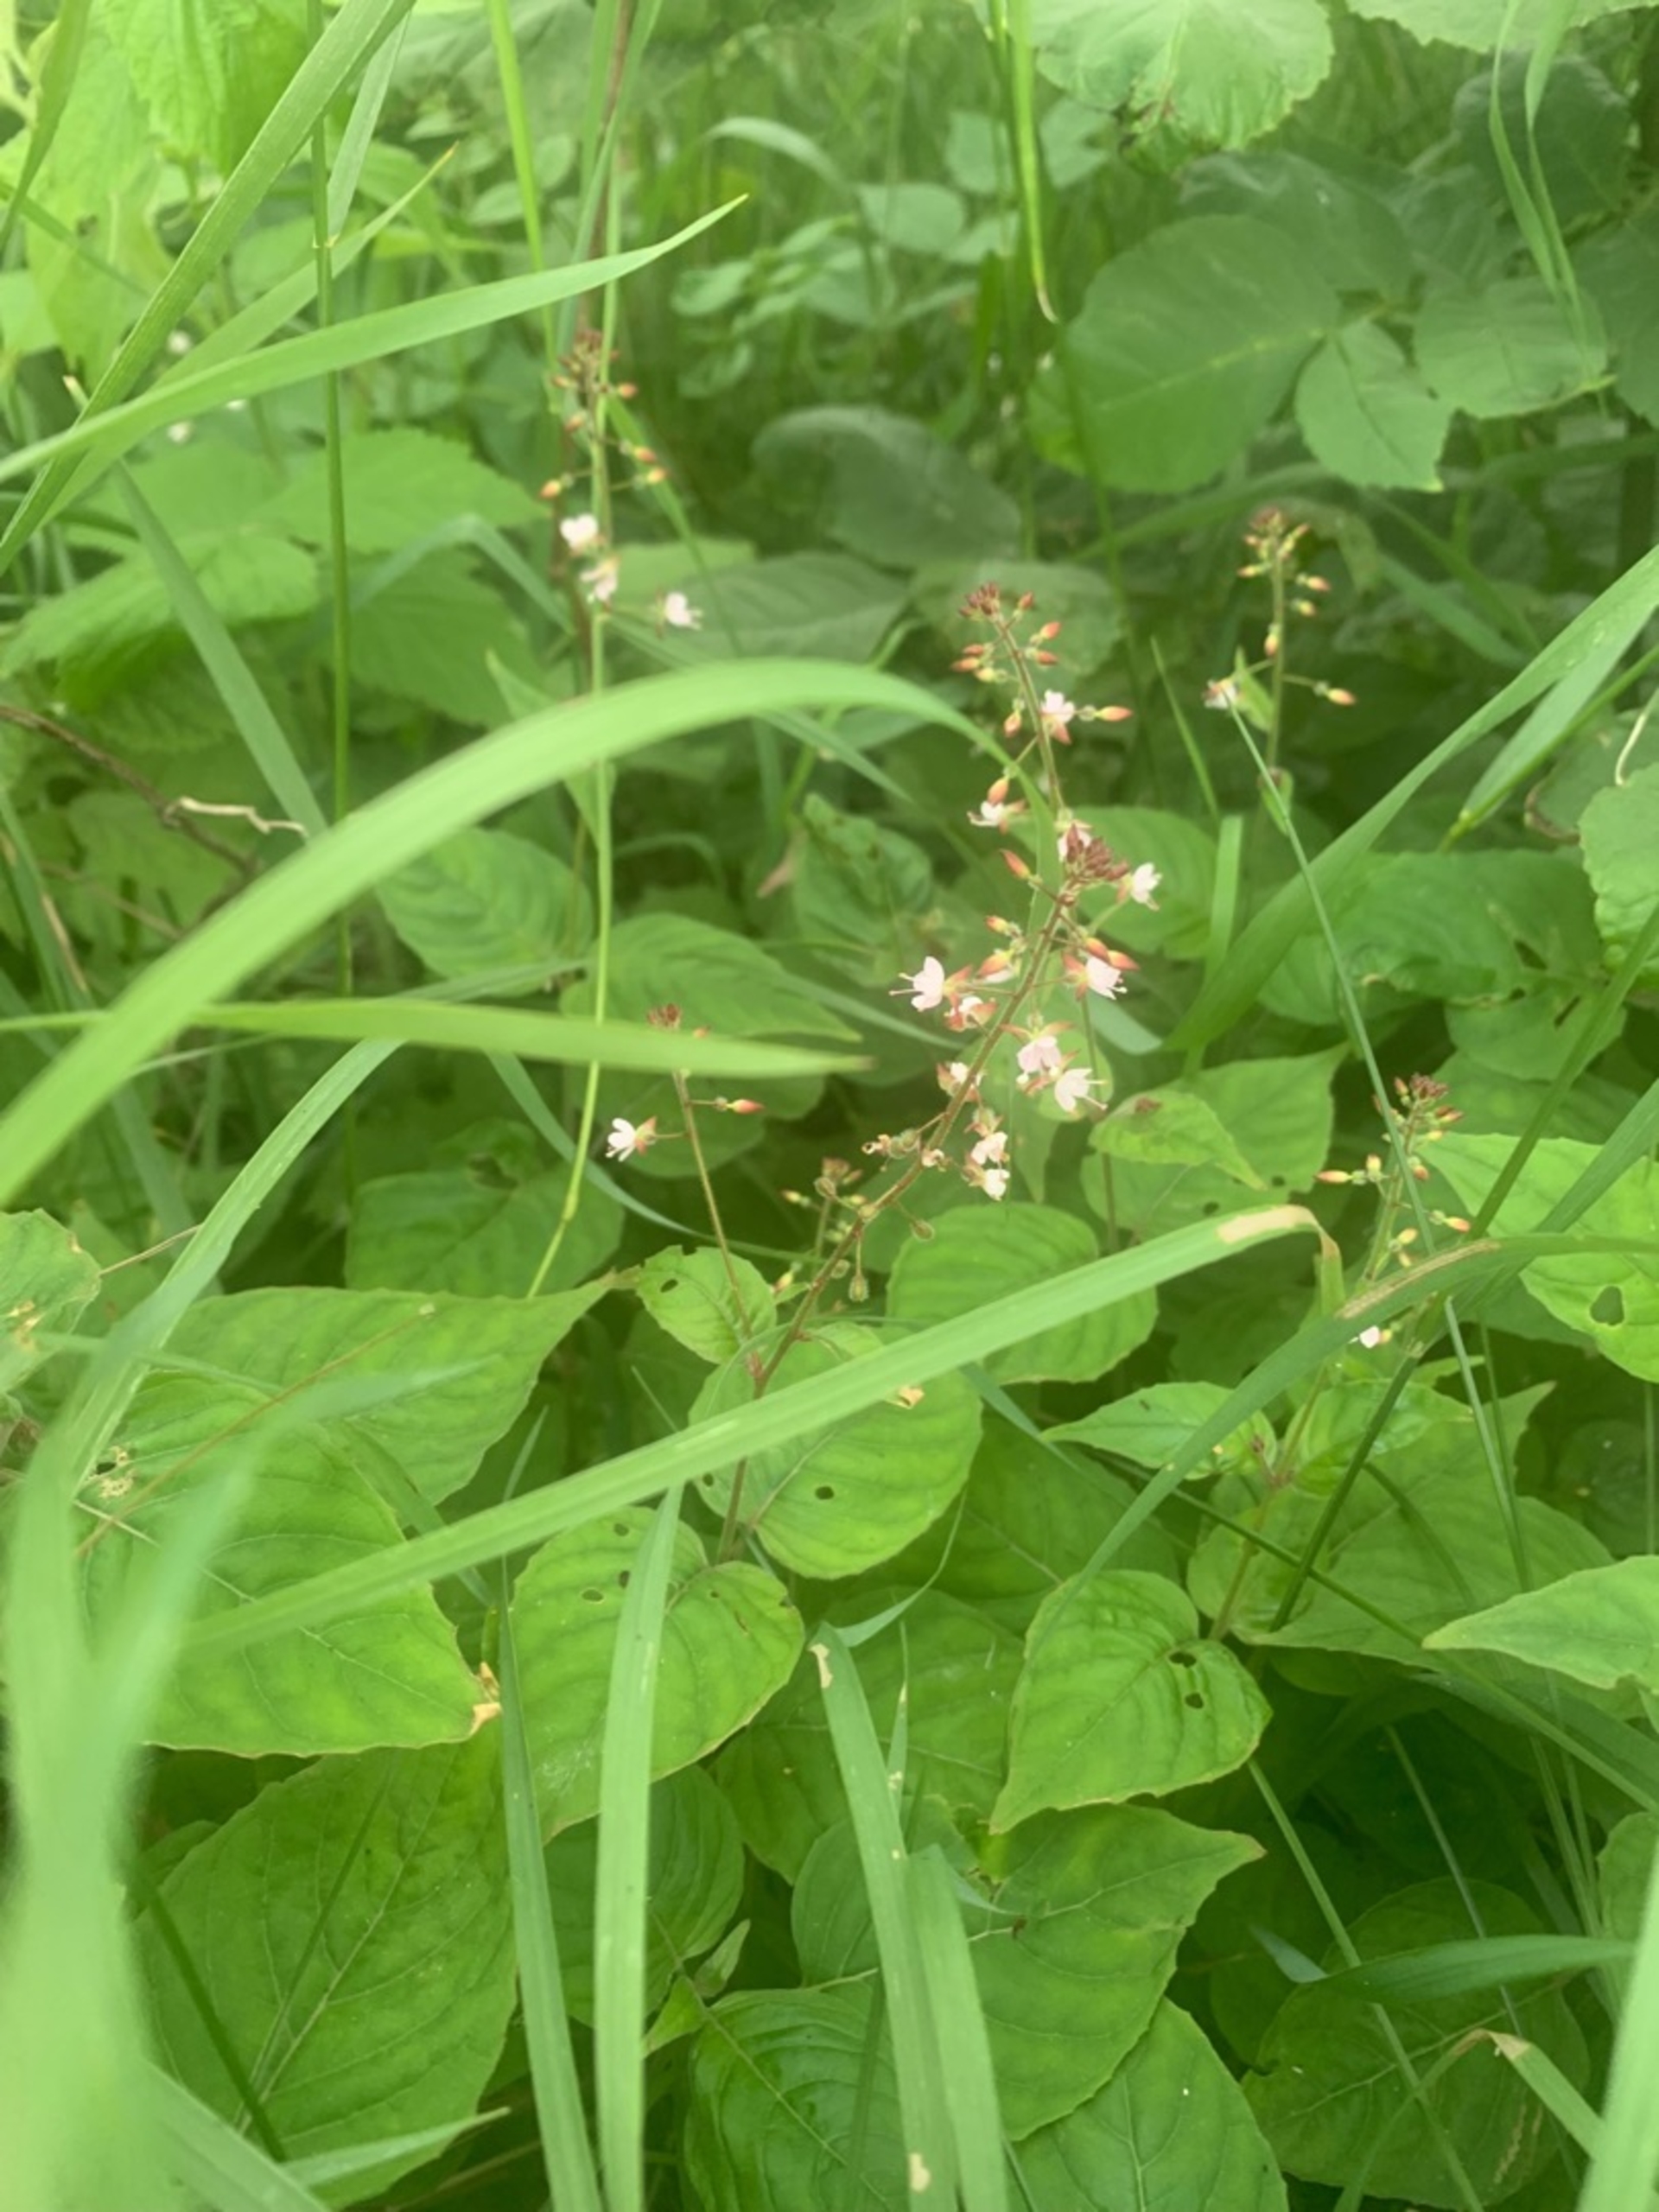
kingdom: Plantae
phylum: Tracheophyta
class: Magnoliopsida
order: Myrtales
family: Onagraceae
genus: Circaea
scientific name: Circaea lutetiana
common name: Dunet steffensurt
